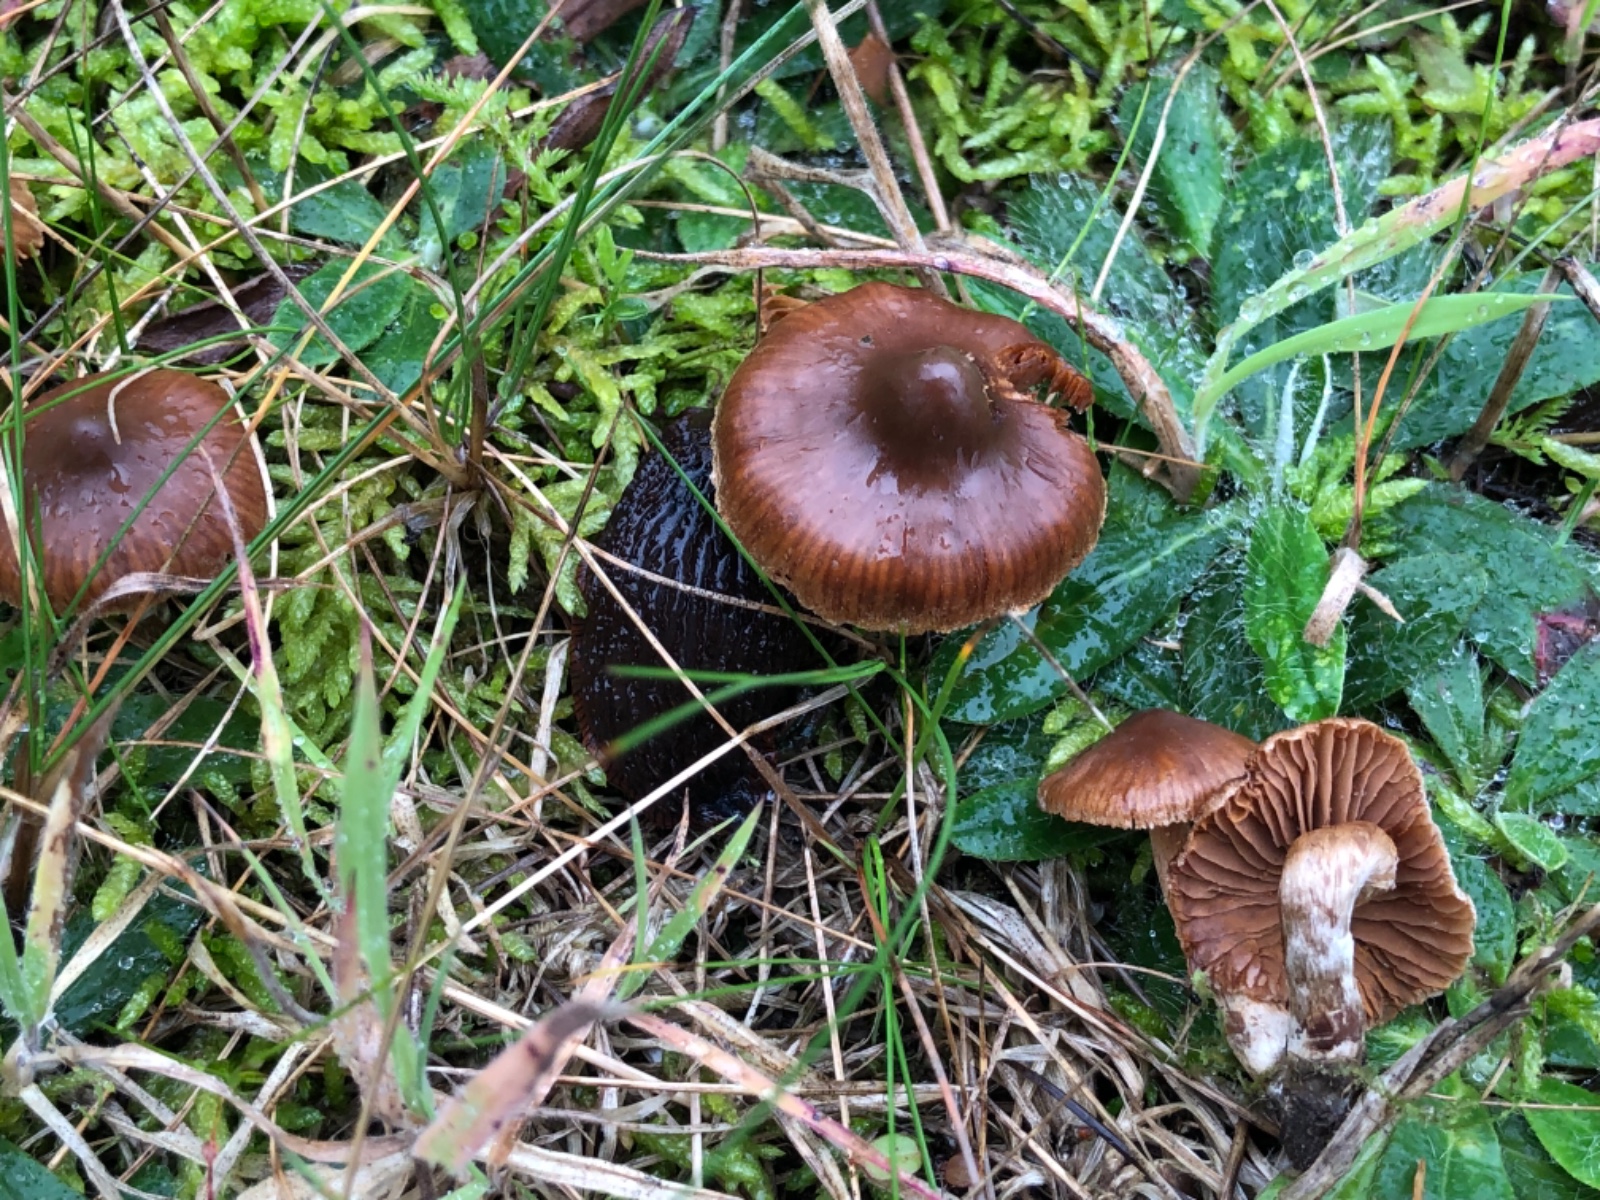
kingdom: Fungi
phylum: Basidiomycota
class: Agaricomycetes
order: Agaricales
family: Cortinariaceae
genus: Cortinarius
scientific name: Cortinarius desertorum
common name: skær slørhat
